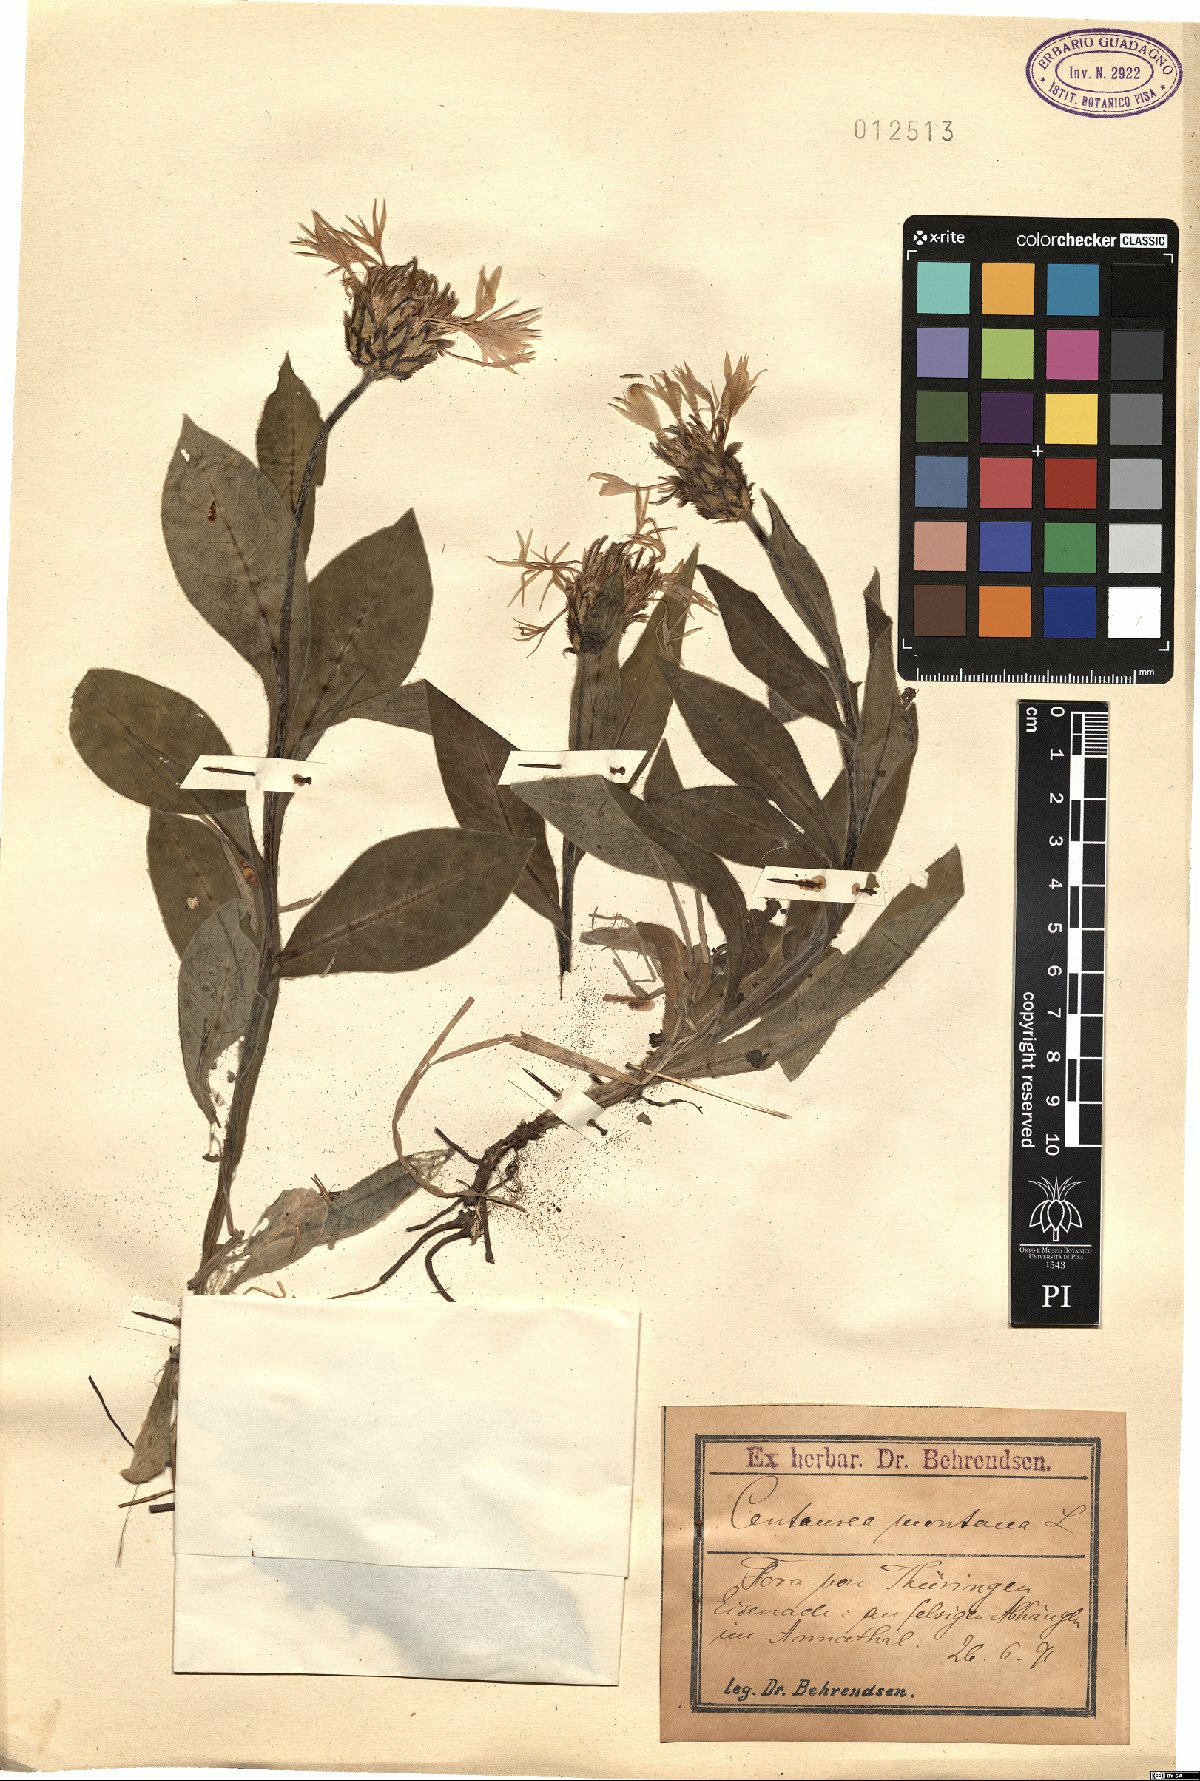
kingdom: Plantae
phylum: Tracheophyta
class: Magnoliopsida
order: Asterales
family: Asteraceae
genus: Centaurea
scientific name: Centaurea montana
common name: Perennial cornflower
